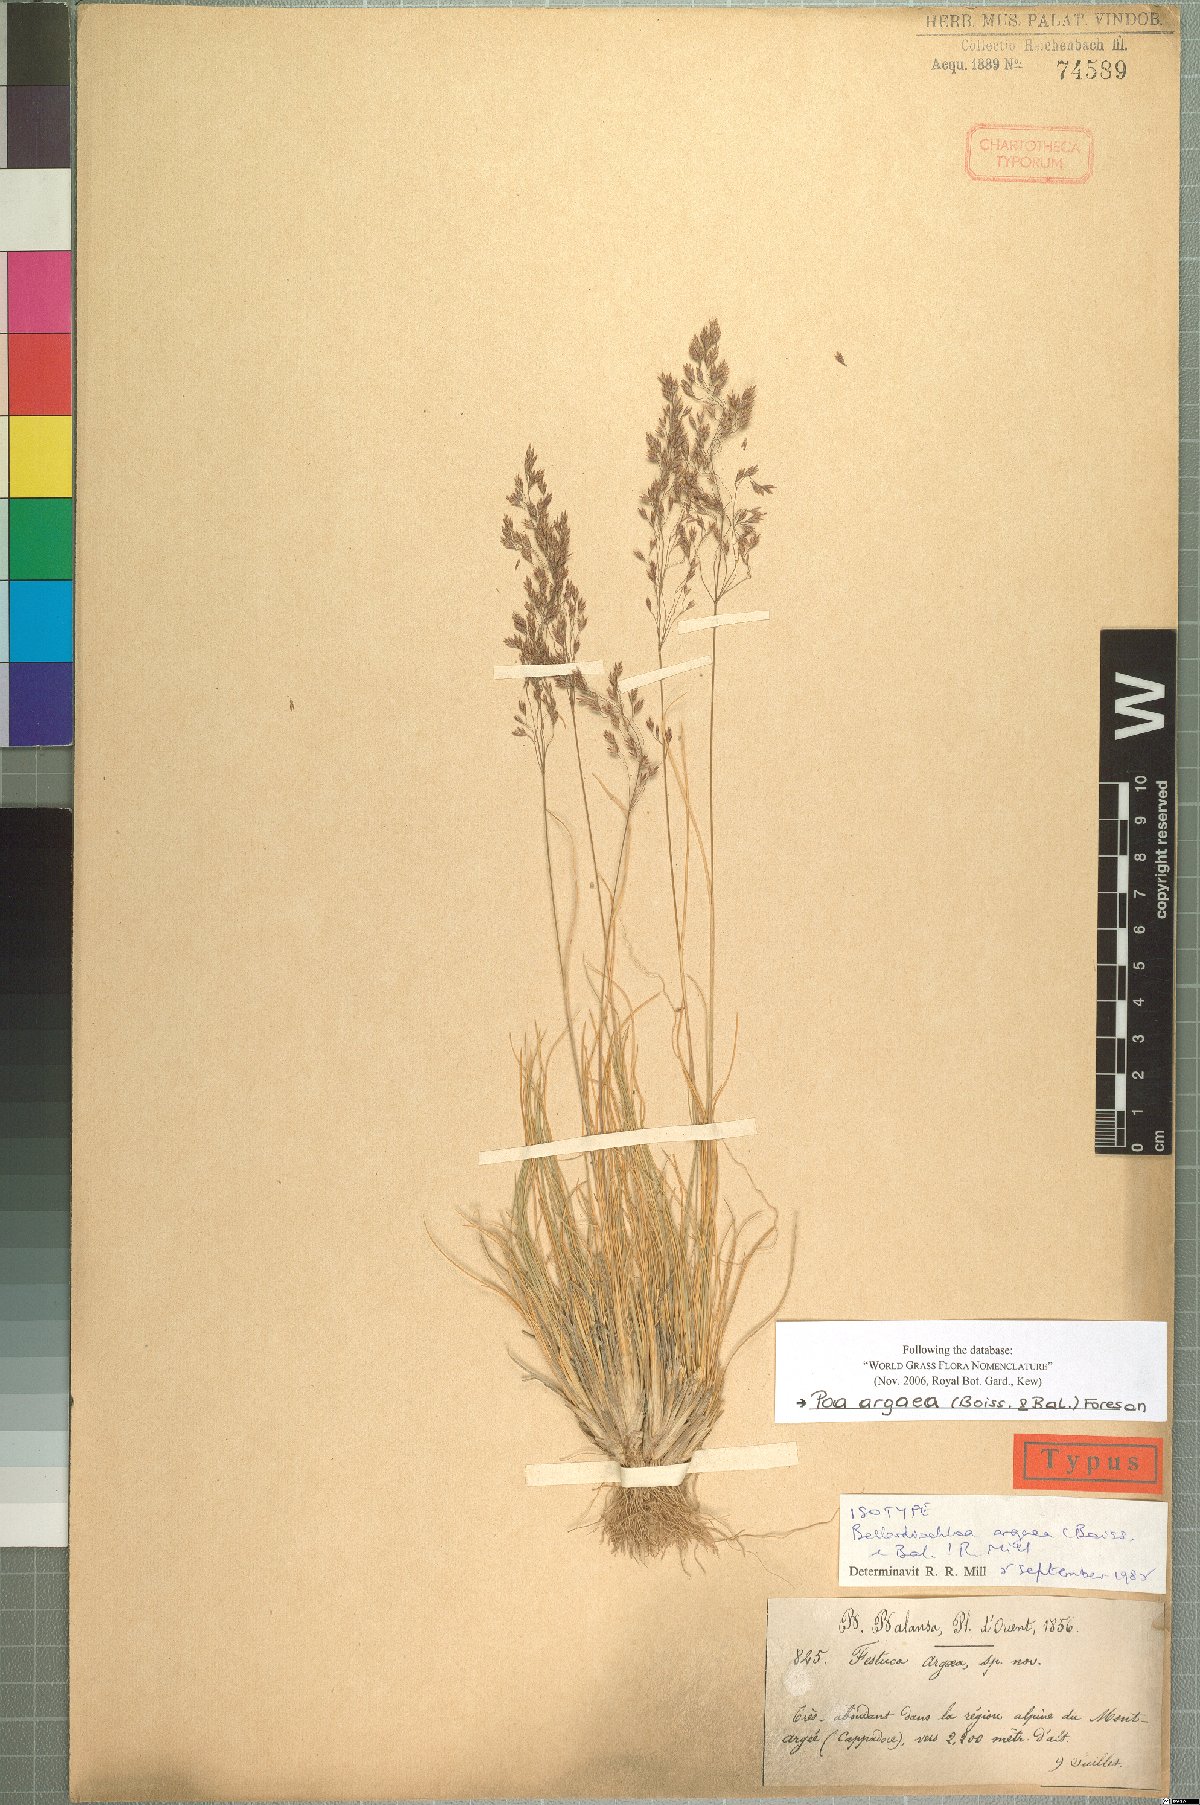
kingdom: Plantae
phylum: Tracheophyta
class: Liliopsida
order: Poales
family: Poaceae
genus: Bellardiochloa
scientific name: Bellardiochloa argaea
